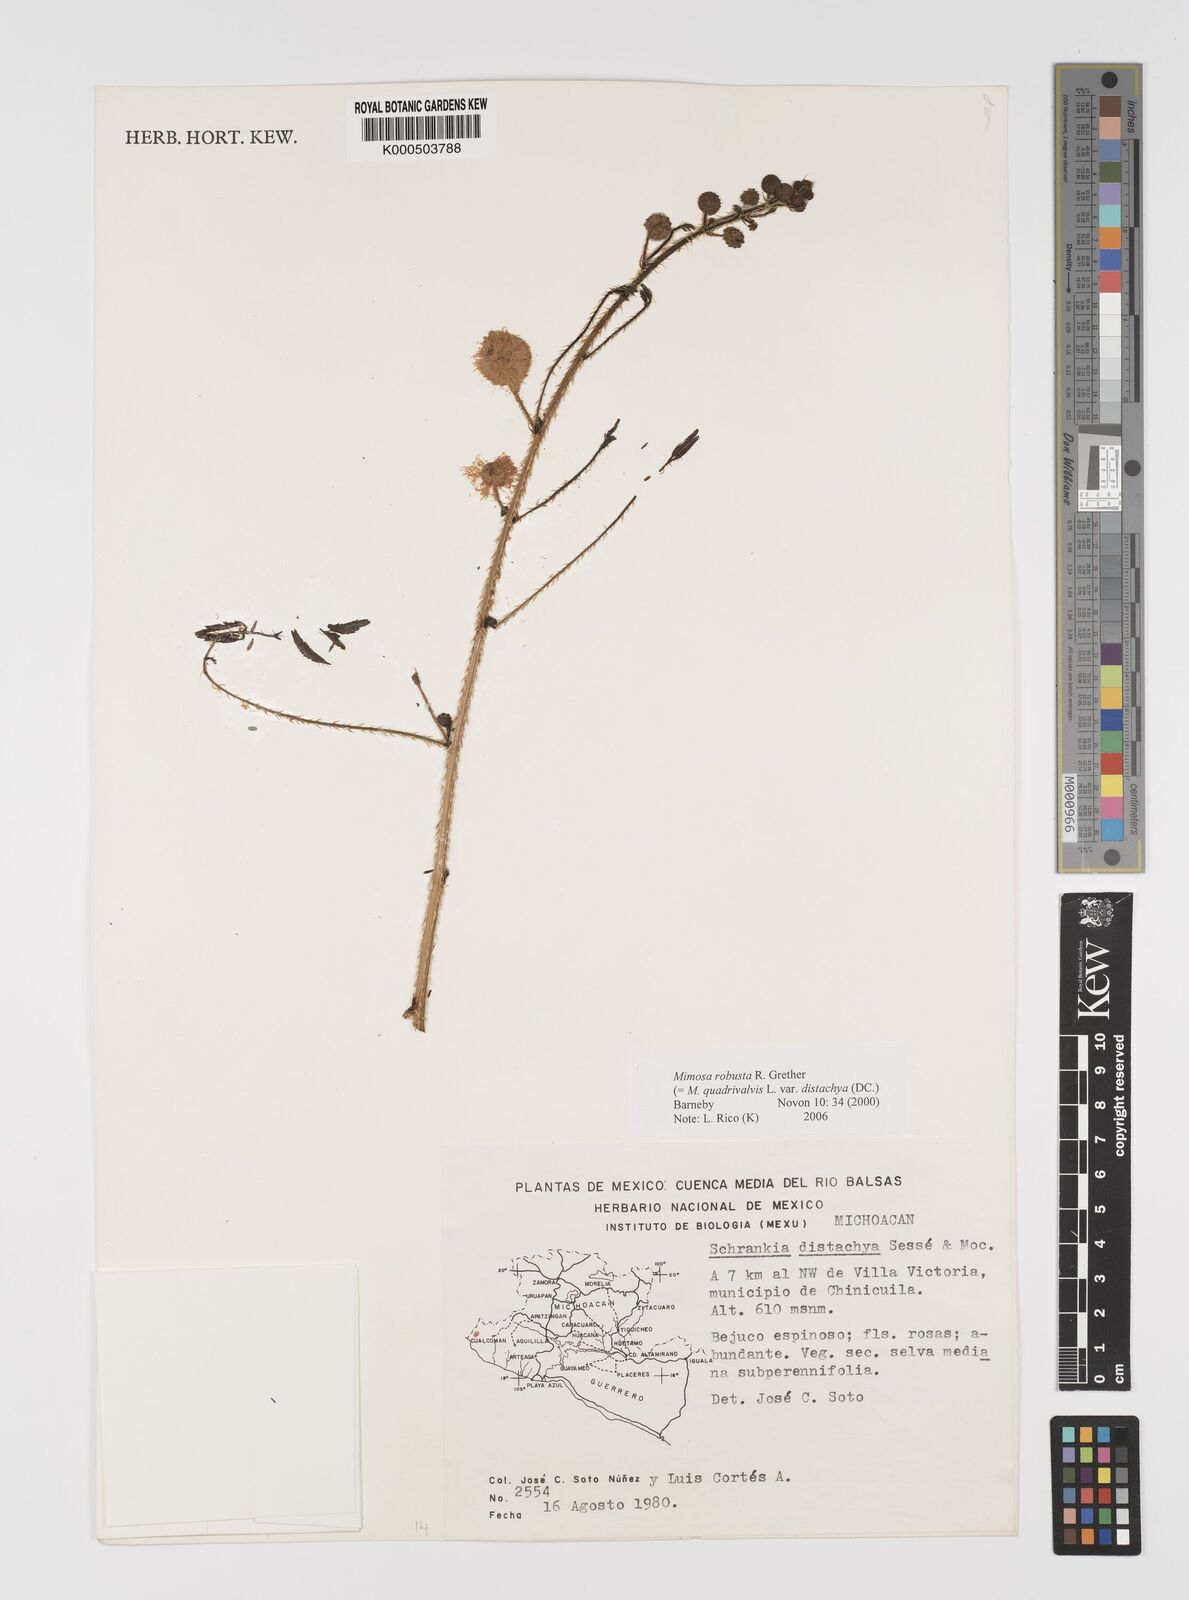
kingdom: Plantae
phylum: Tracheophyta
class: Magnoliopsida
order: Fabales
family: Fabaceae
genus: Mimosa
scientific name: Mimosa robusta
